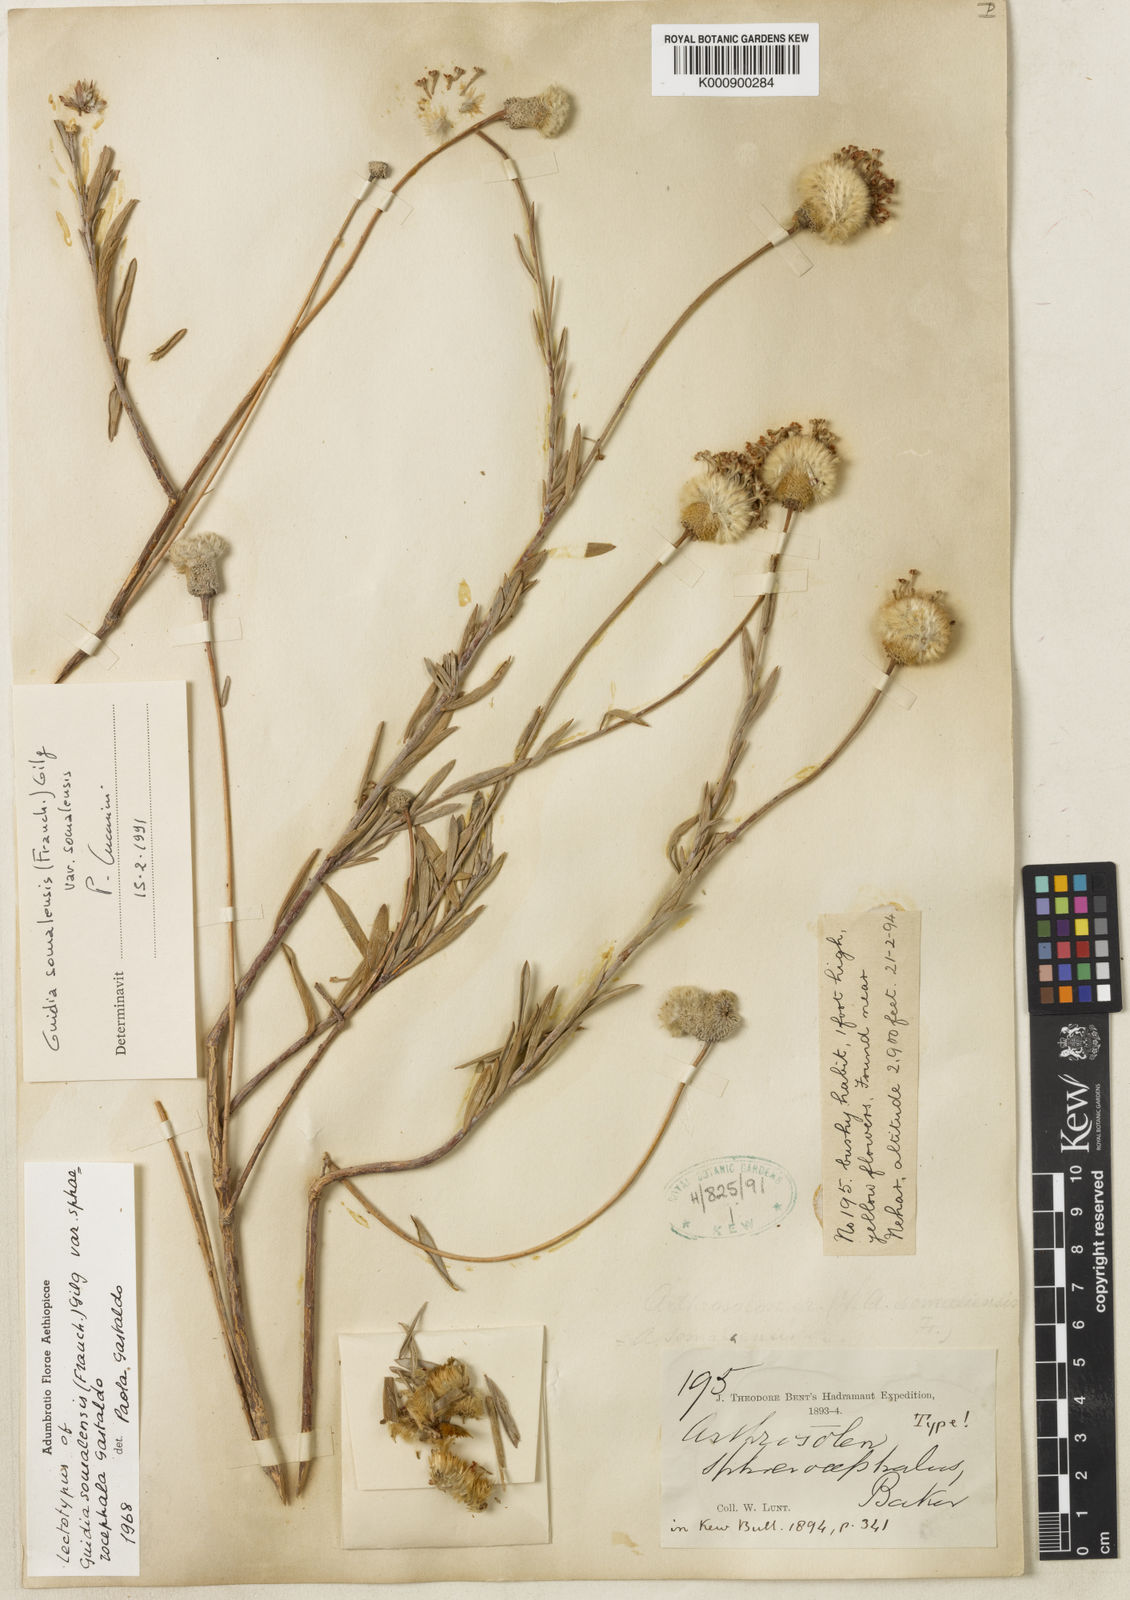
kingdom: Plantae
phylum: Tracheophyta
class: Magnoliopsida
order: Malvales
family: Thymelaeaceae
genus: Gnidia
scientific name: Gnidia somalensis
